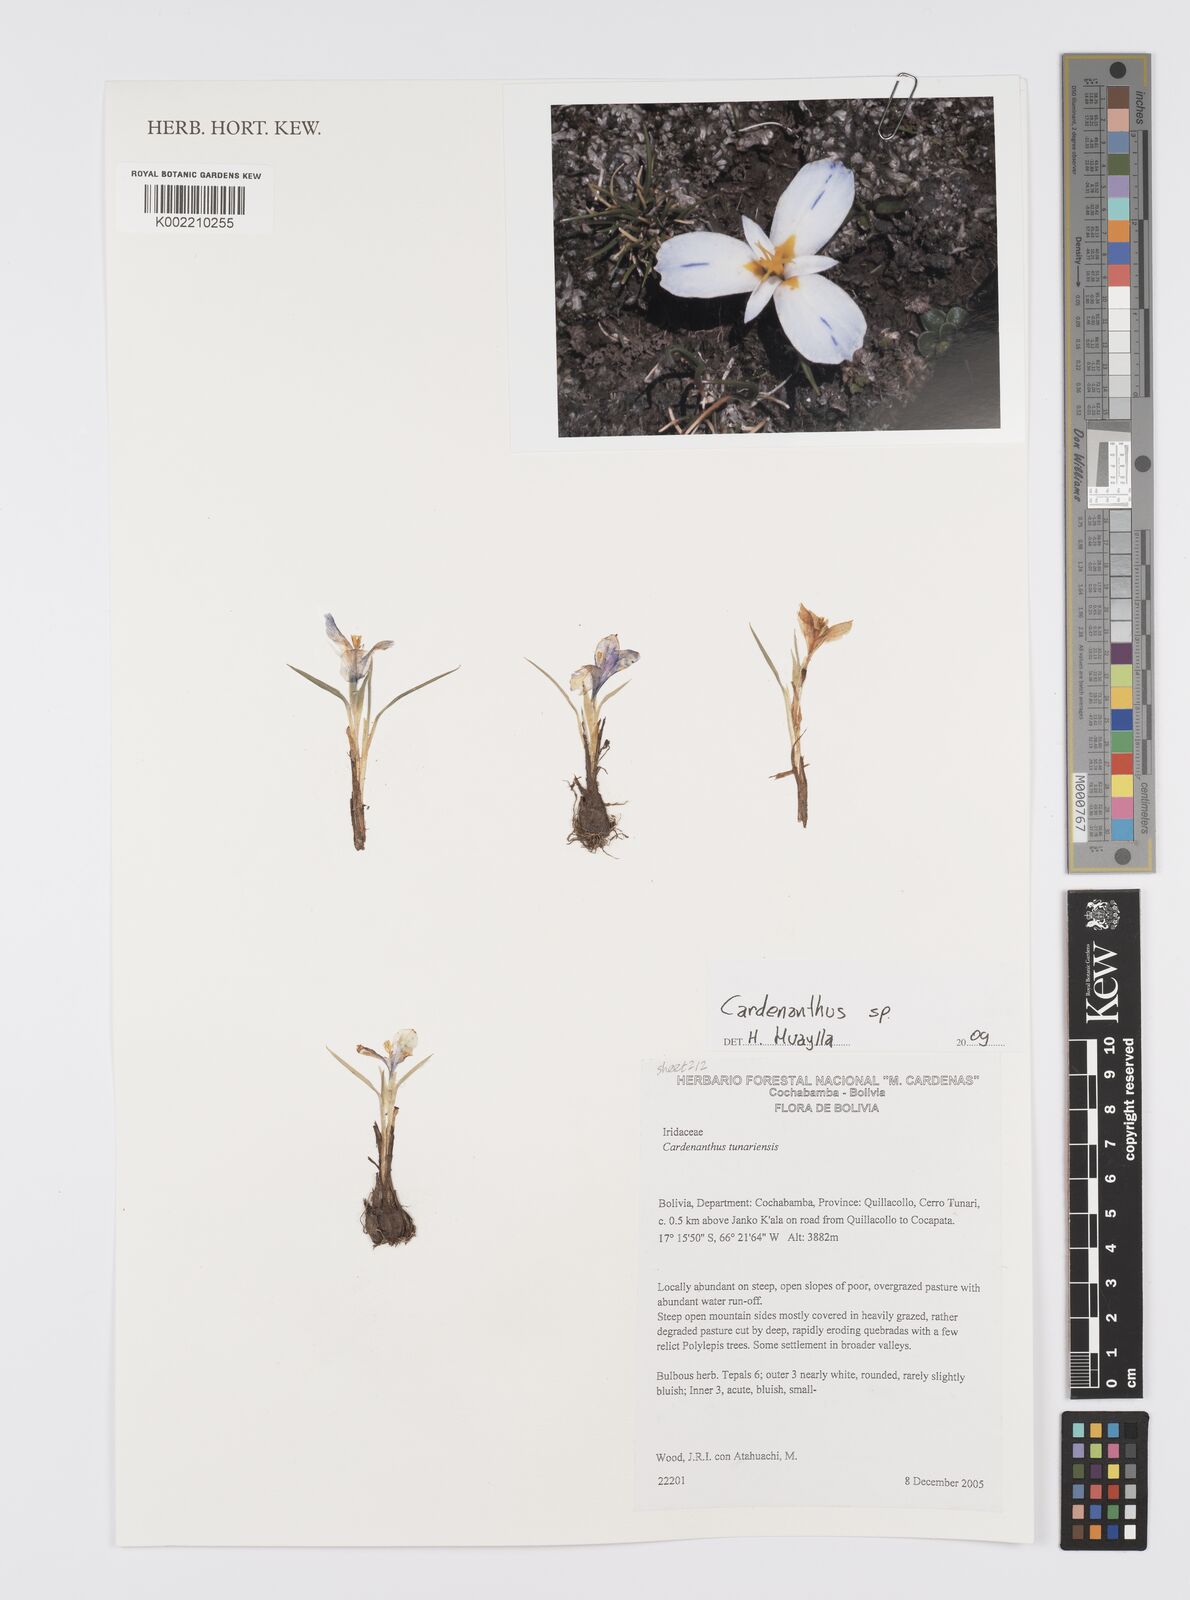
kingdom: Plantae
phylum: Tracheophyta
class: Liliopsida
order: Asparagales
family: Iridaceae
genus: Mastigostyla
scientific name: Mastigostyla
